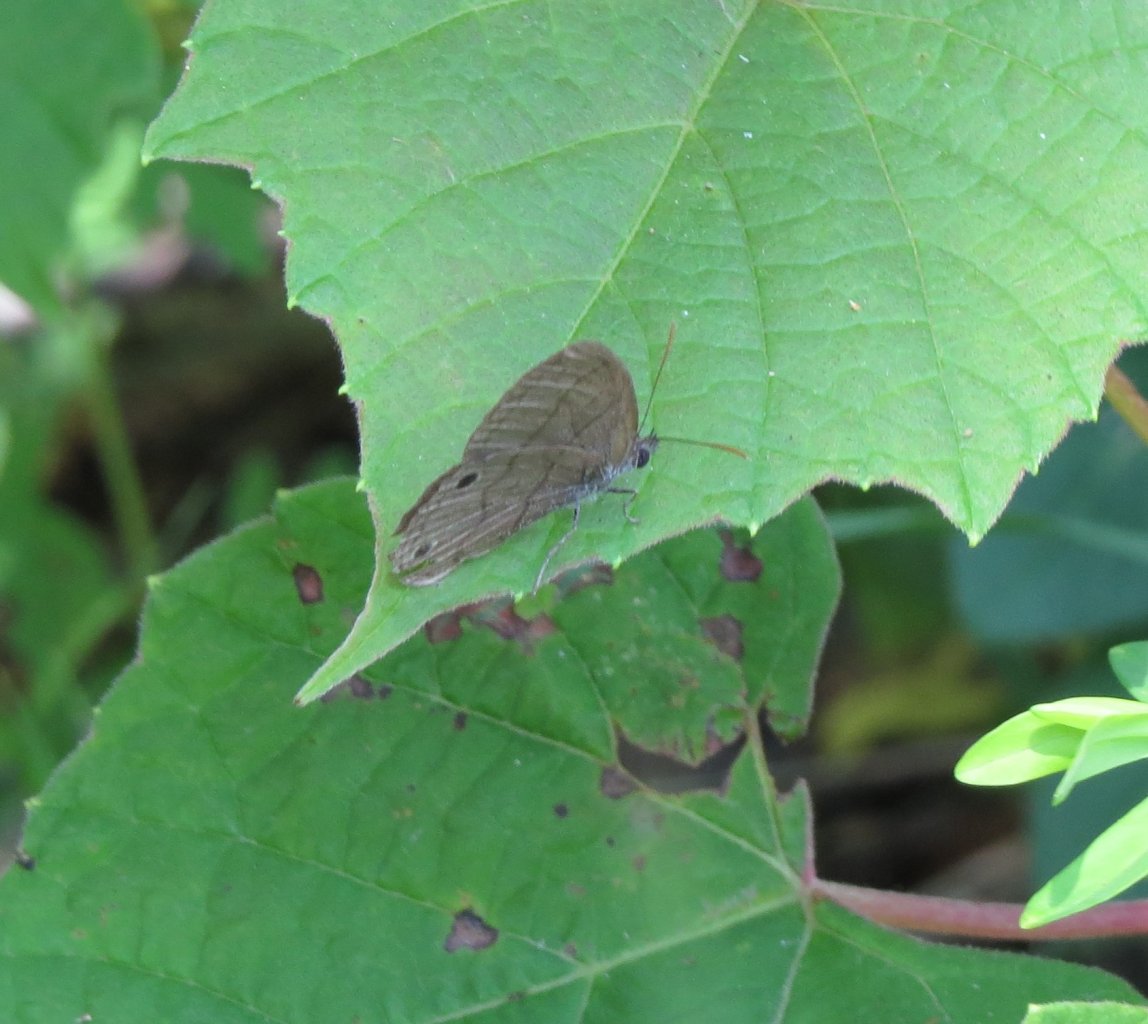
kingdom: Animalia
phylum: Arthropoda
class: Insecta
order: Lepidoptera
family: Nymphalidae
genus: Hermeuptychia
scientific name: Hermeuptychia hermes
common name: Carolina Satyr
